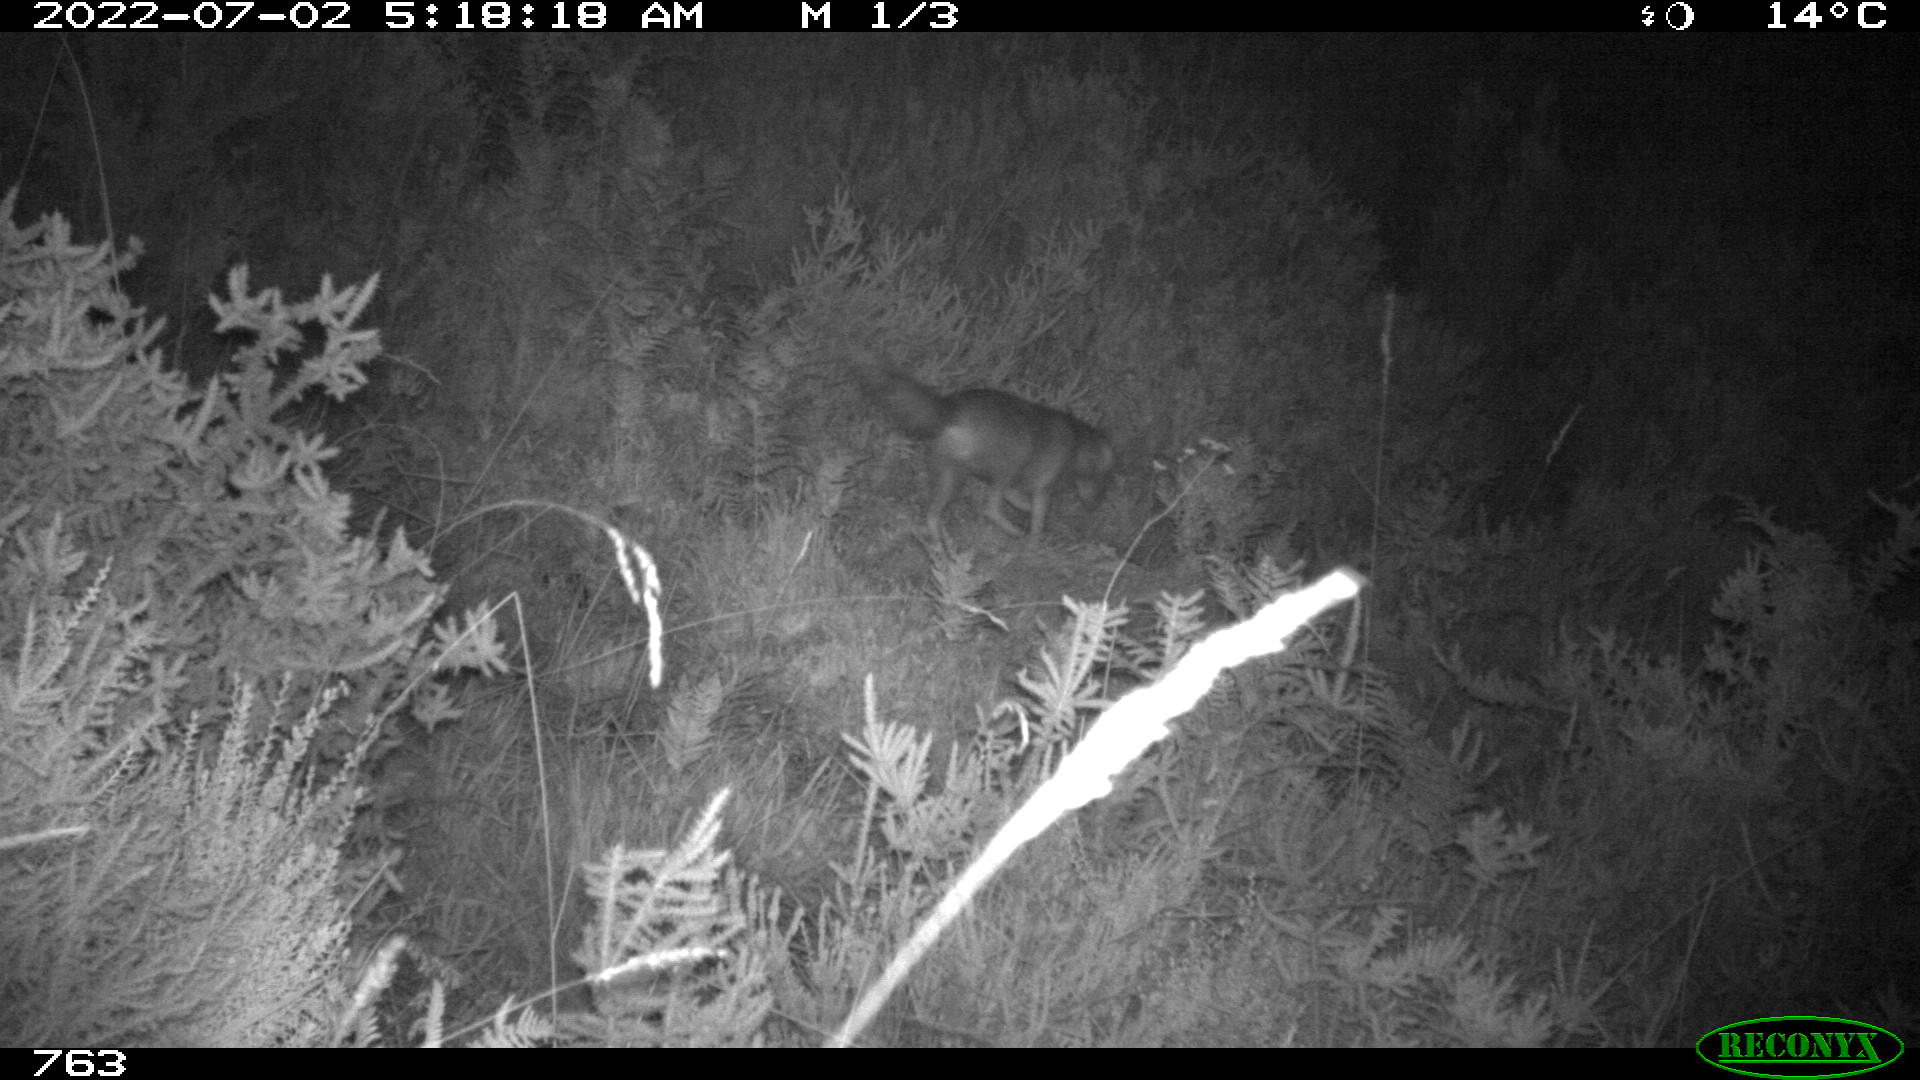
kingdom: Animalia
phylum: Chordata
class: Mammalia
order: Carnivora
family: Canidae
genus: Vulpes
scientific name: Vulpes vulpes
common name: Red fox
